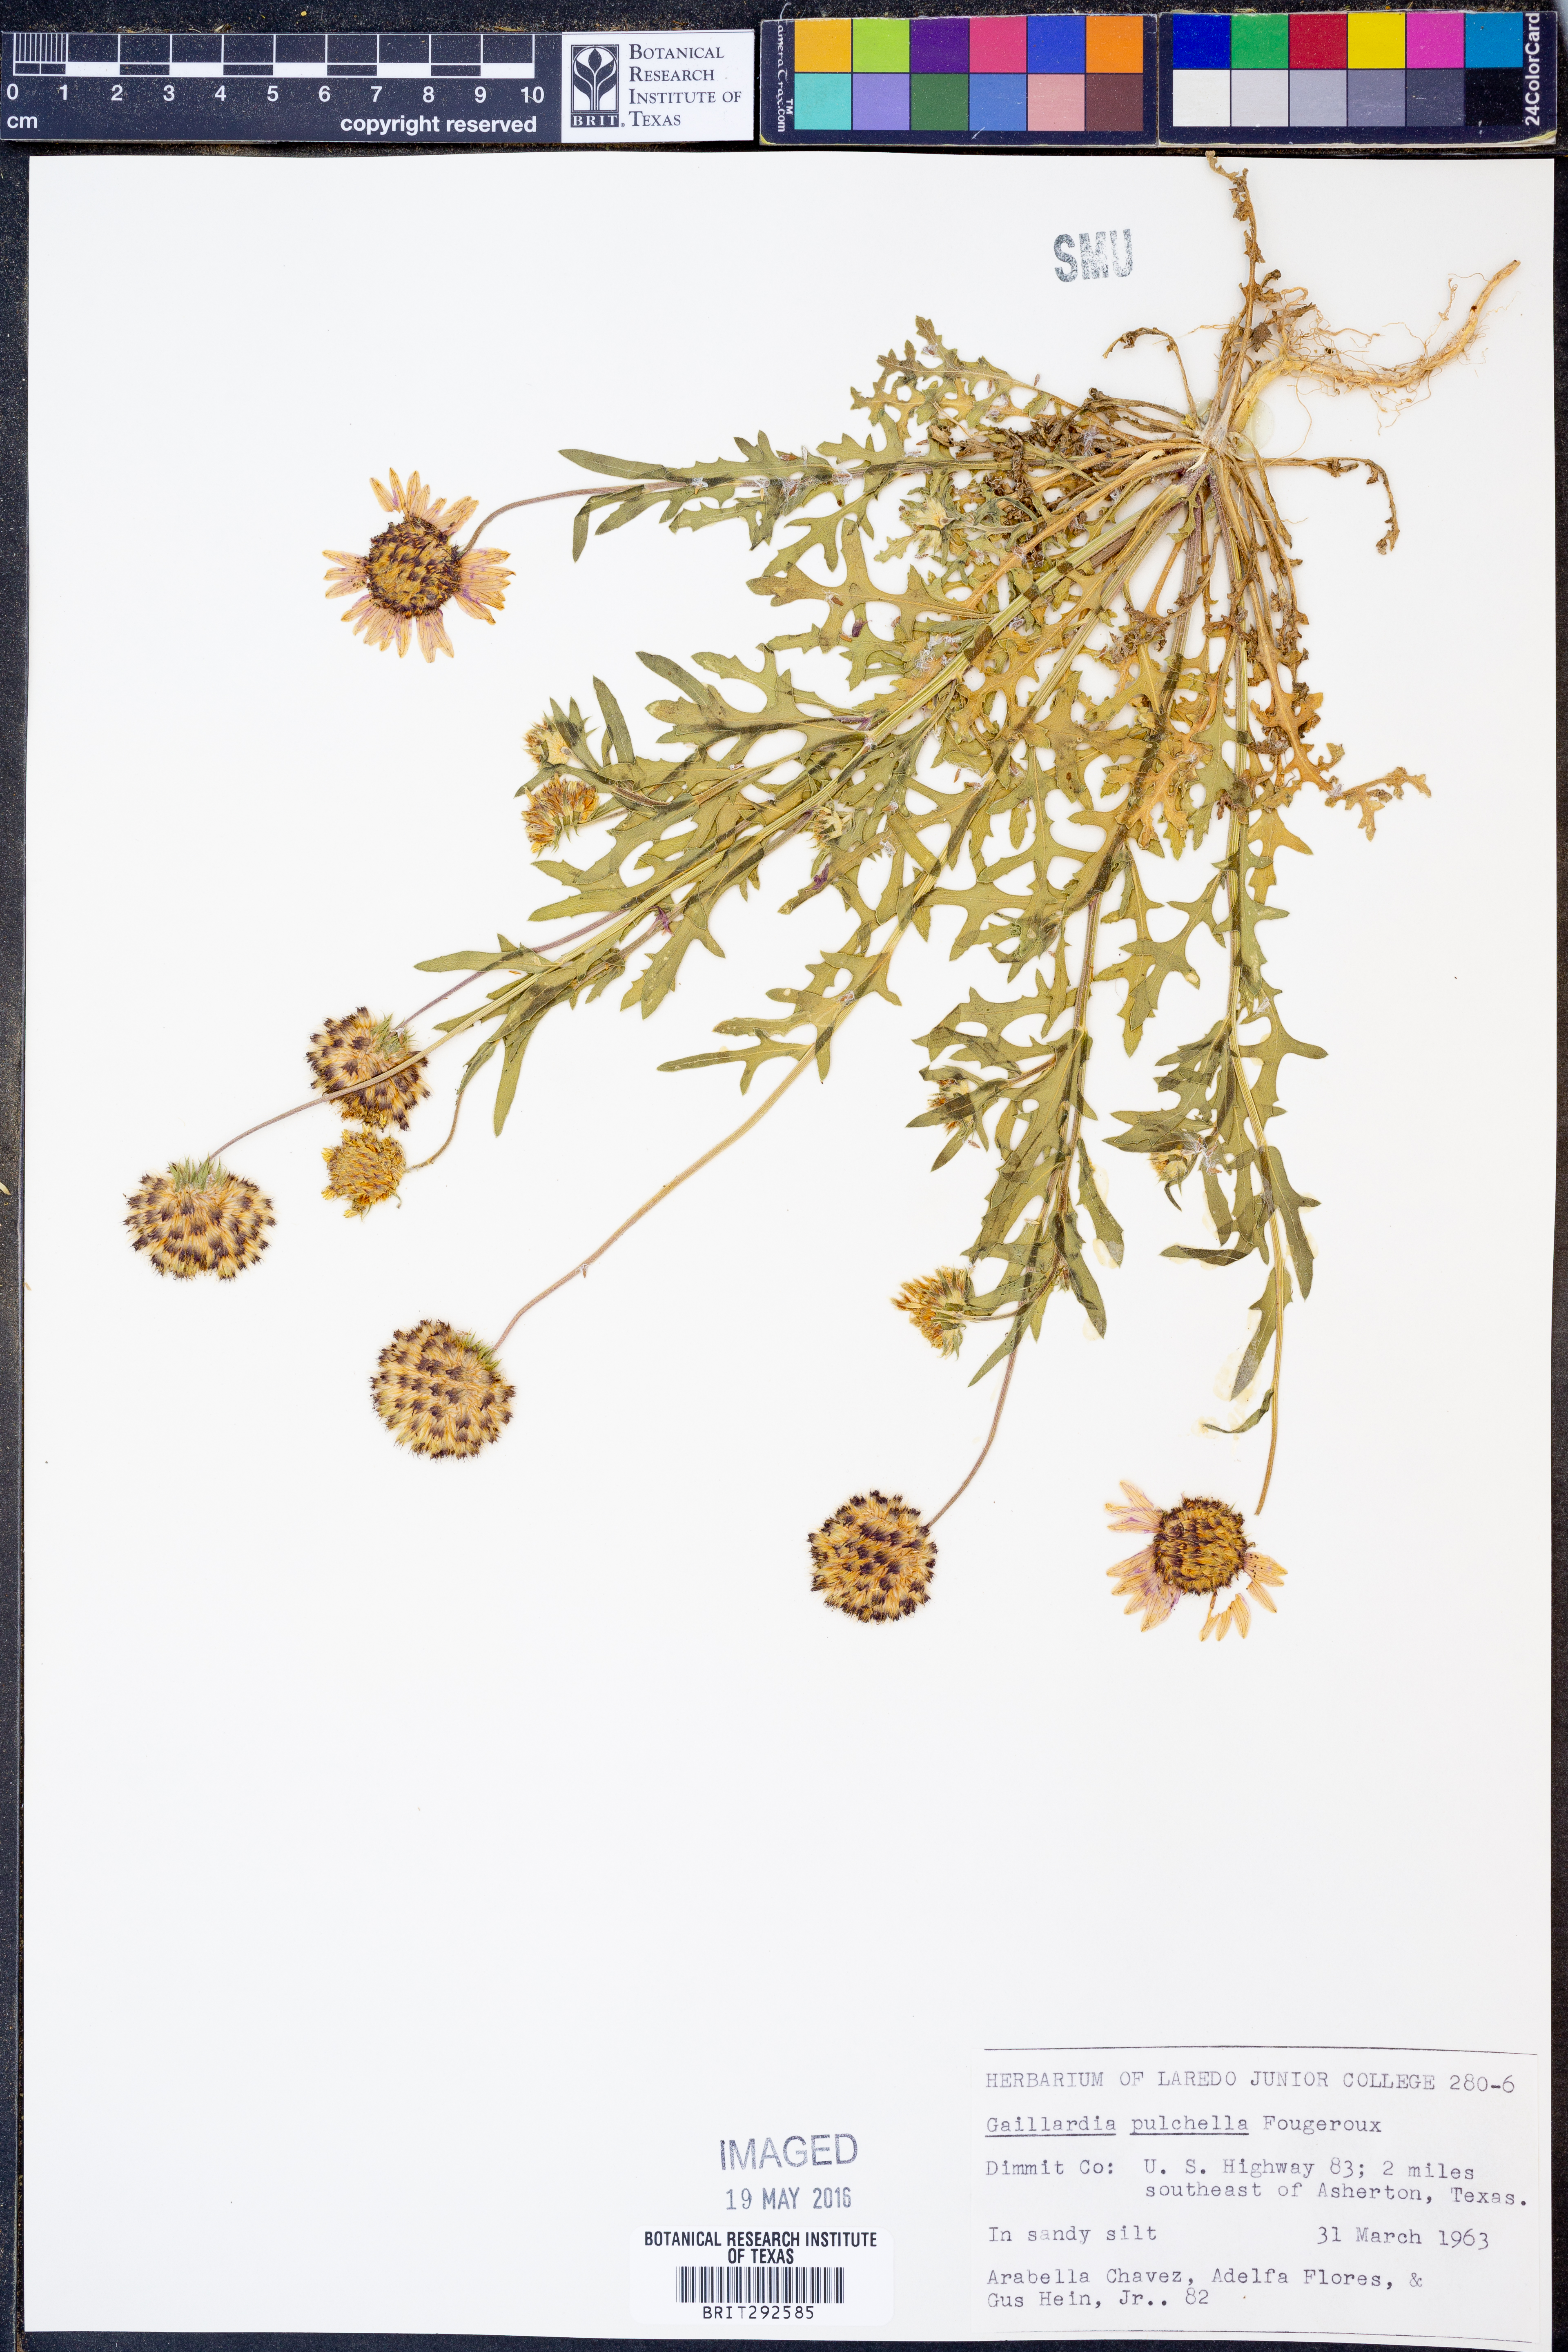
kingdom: Plantae
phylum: Tracheophyta
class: Magnoliopsida
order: Asterales
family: Asteraceae
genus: Gaillardia
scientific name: Gaillardia pulchella
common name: Firewheel
